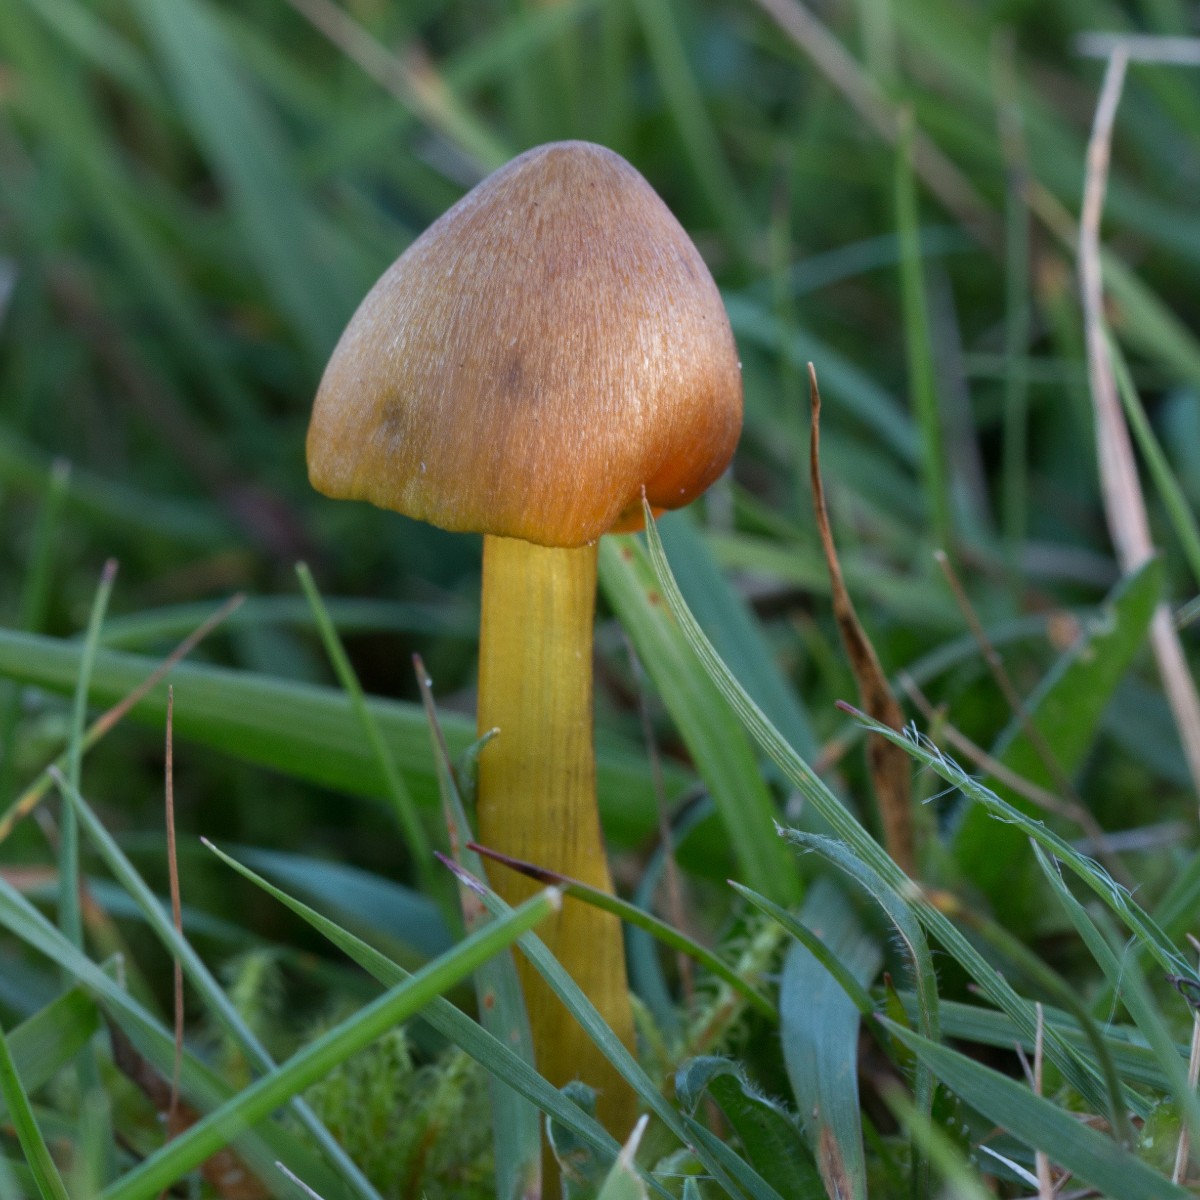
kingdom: Fungi
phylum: Basidiomycota
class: Agaricomycetes
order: Agaricales
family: Hygrophoraceae
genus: Hygrocybe
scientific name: Hygrocybe conica
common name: kegle-vokshat
